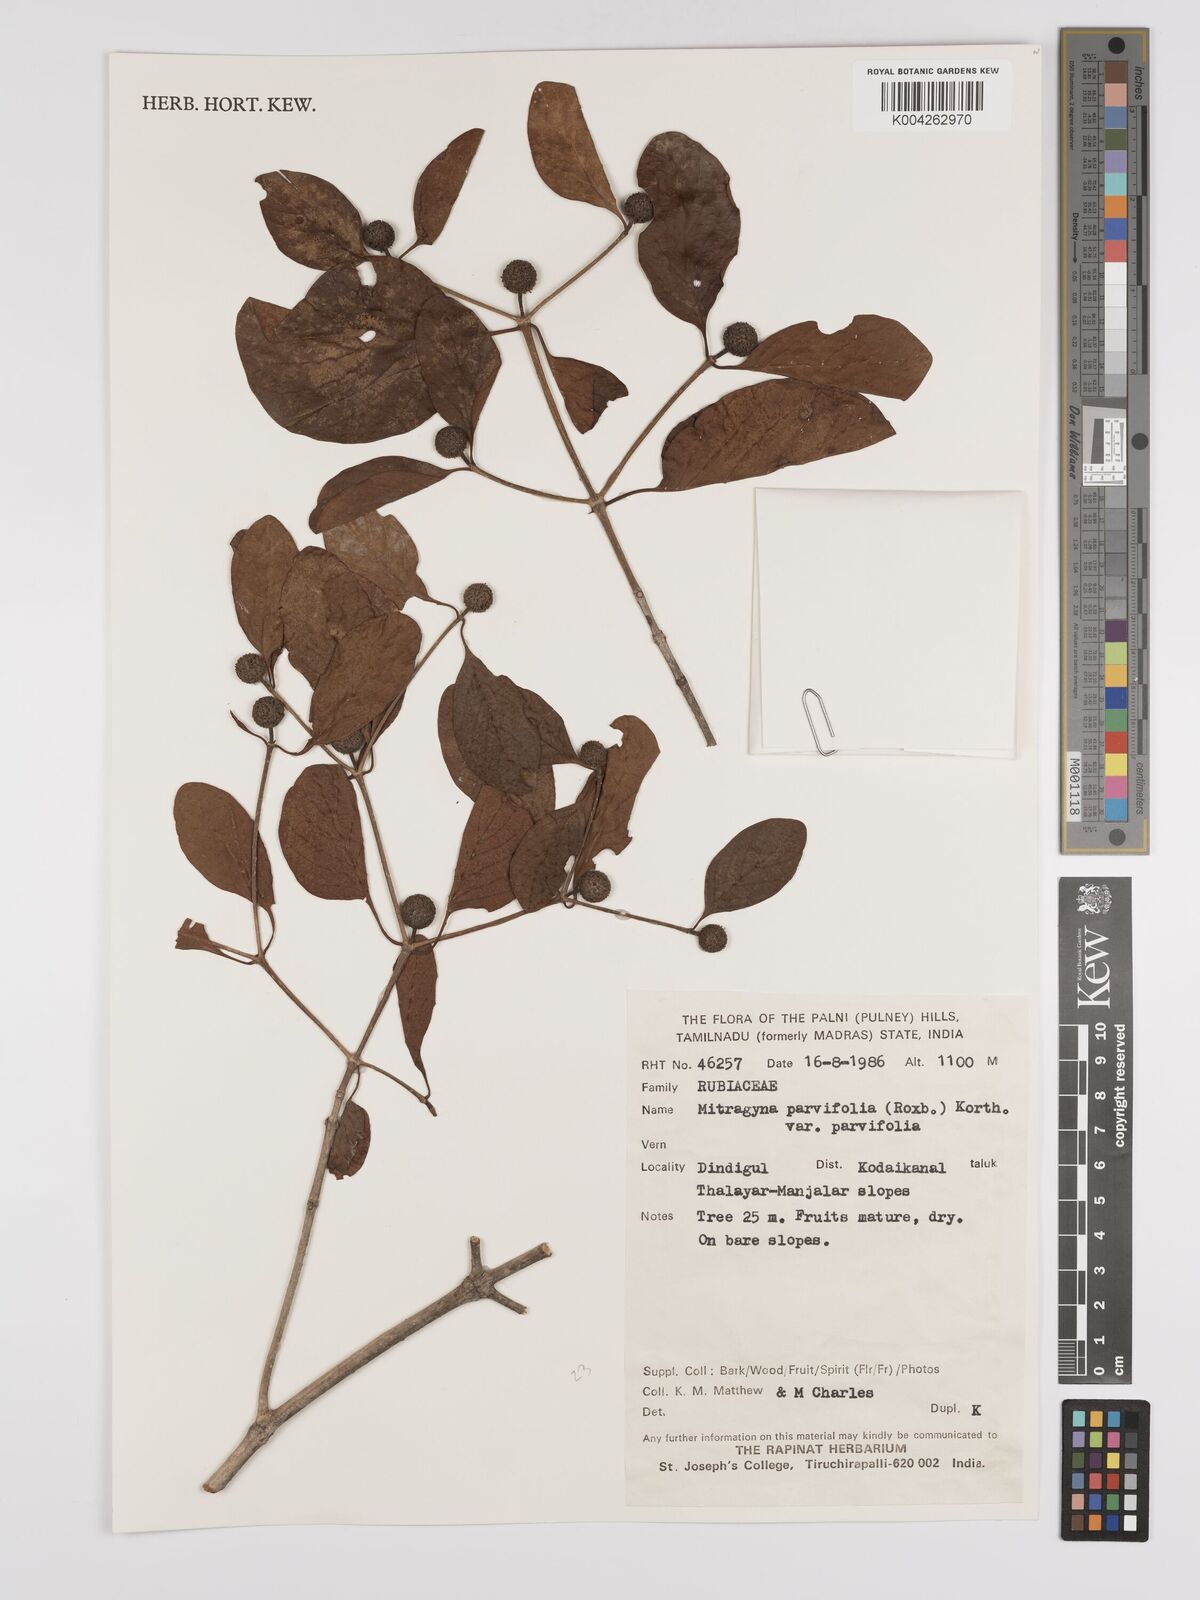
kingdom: Plantae
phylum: Tracheophyta
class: Magnoliopsida
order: Gentianales
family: Rubiaceae
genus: Mitragyna
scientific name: Mitragyna parvifolia
